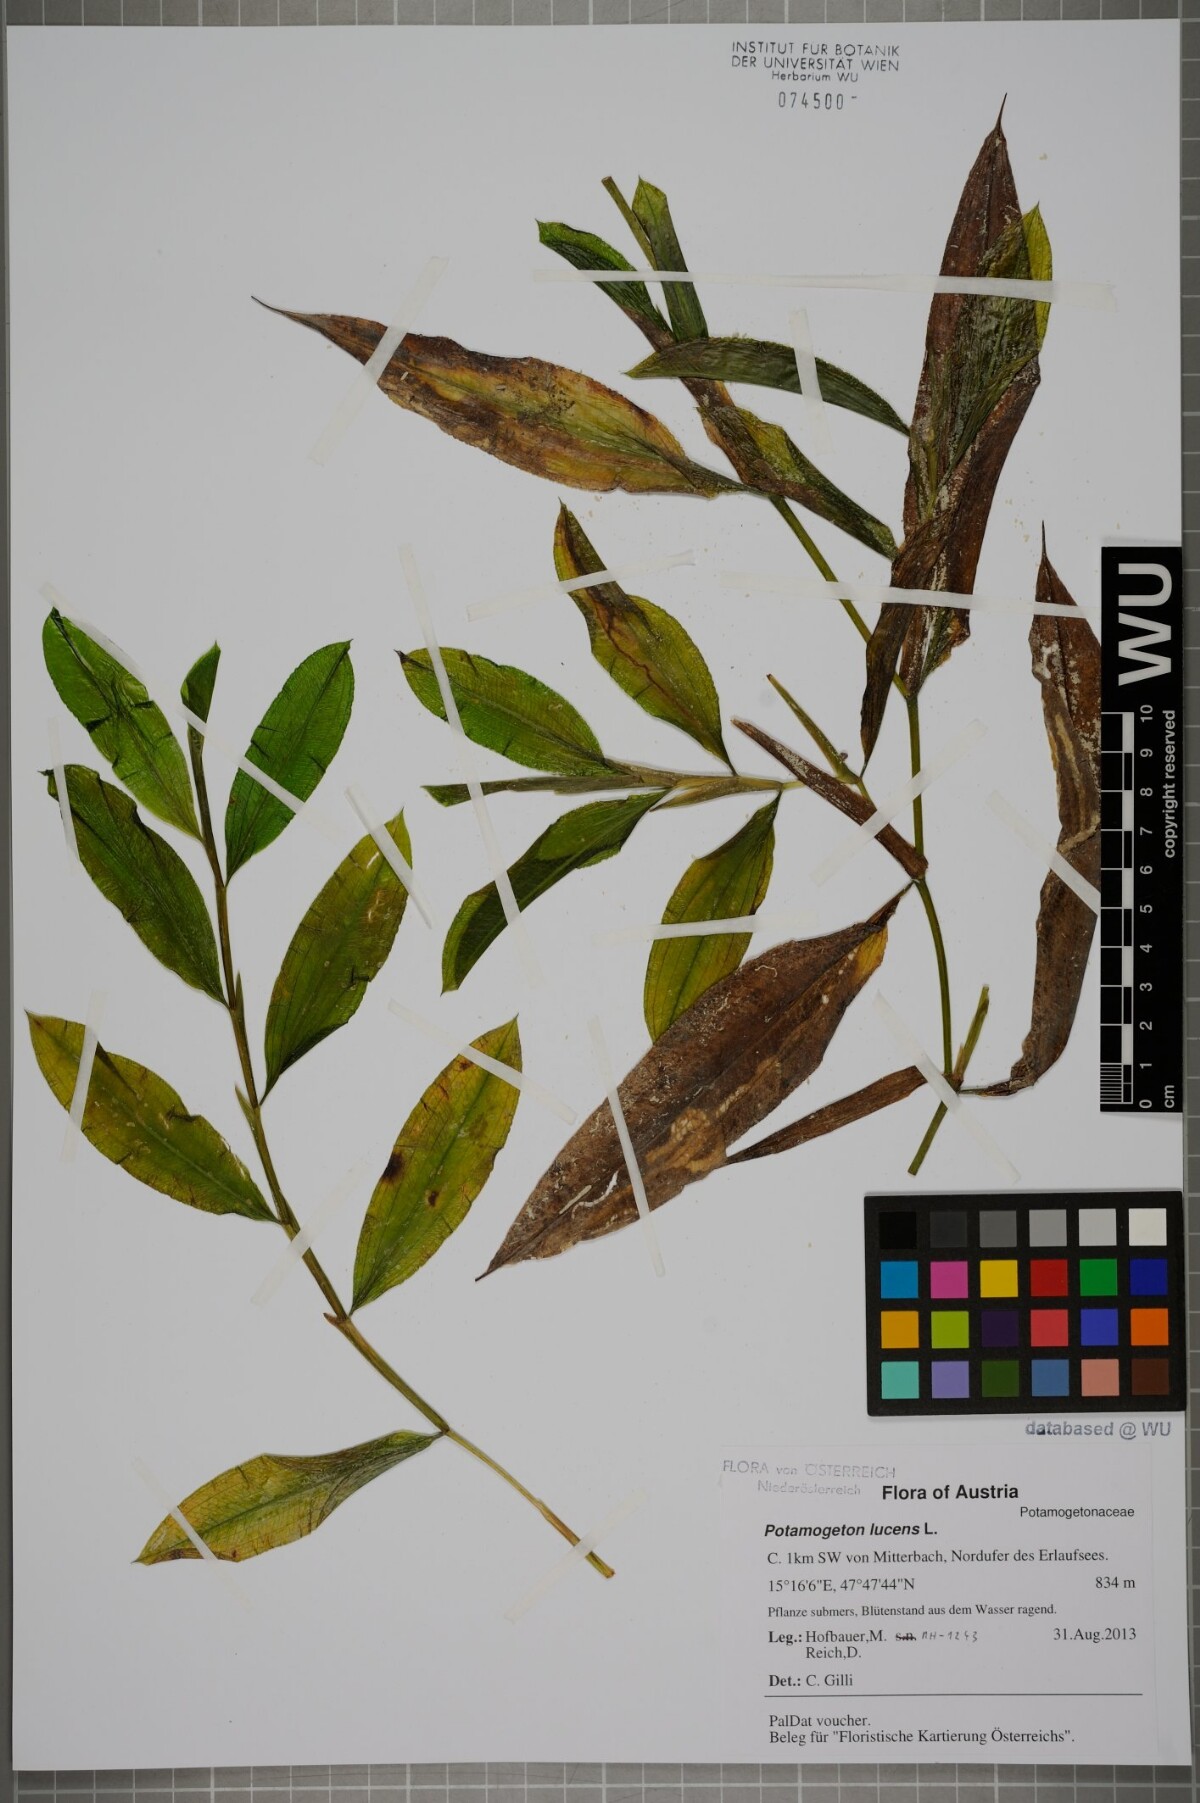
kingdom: Plantae
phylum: Tracheophyta
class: Liliopsida
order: Alismatales
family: Potamogetonaceae
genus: Potamogeton
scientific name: Potamogeton lucens
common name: Shining pondweed
